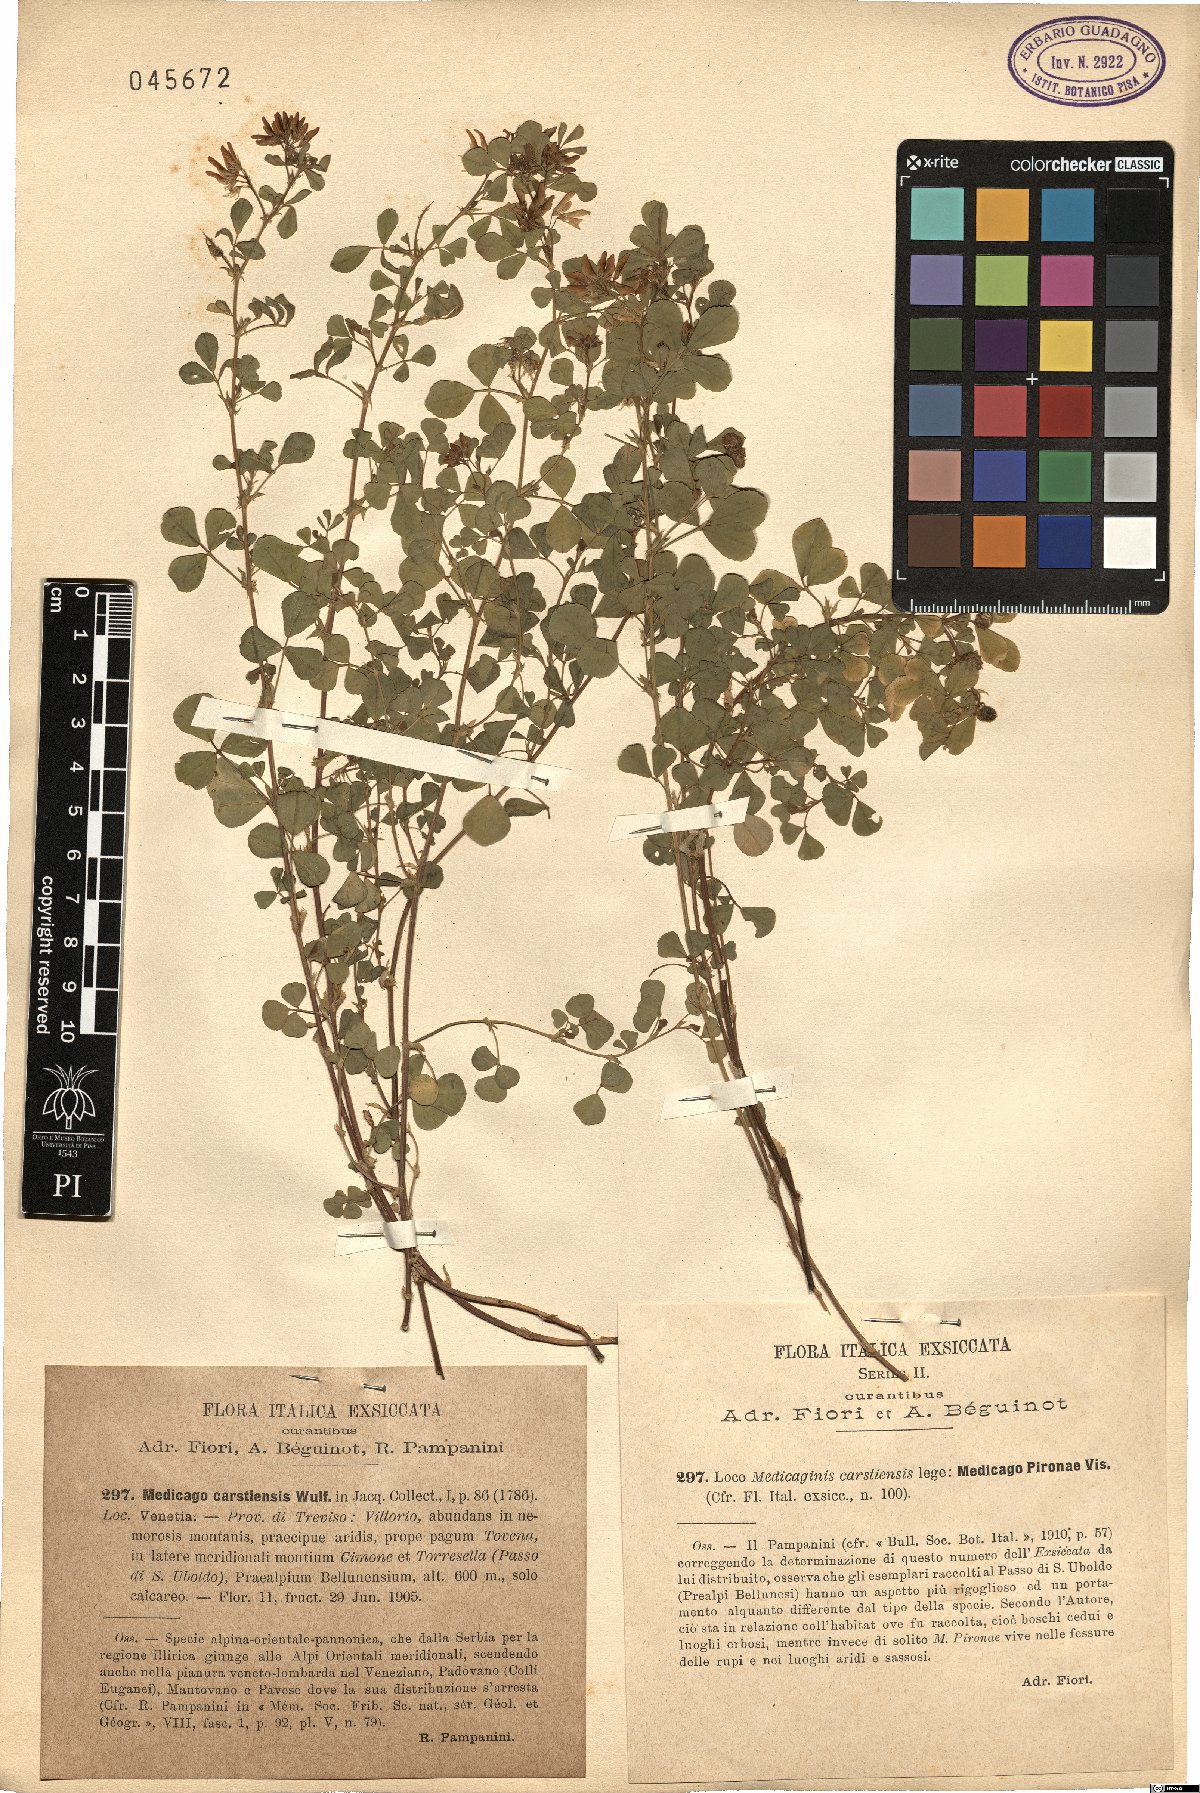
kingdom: Plantae
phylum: Tracheophyta
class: Magnoliopsida
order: Fabales
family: Fabaceae
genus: Medicago
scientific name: Medicago pironae
